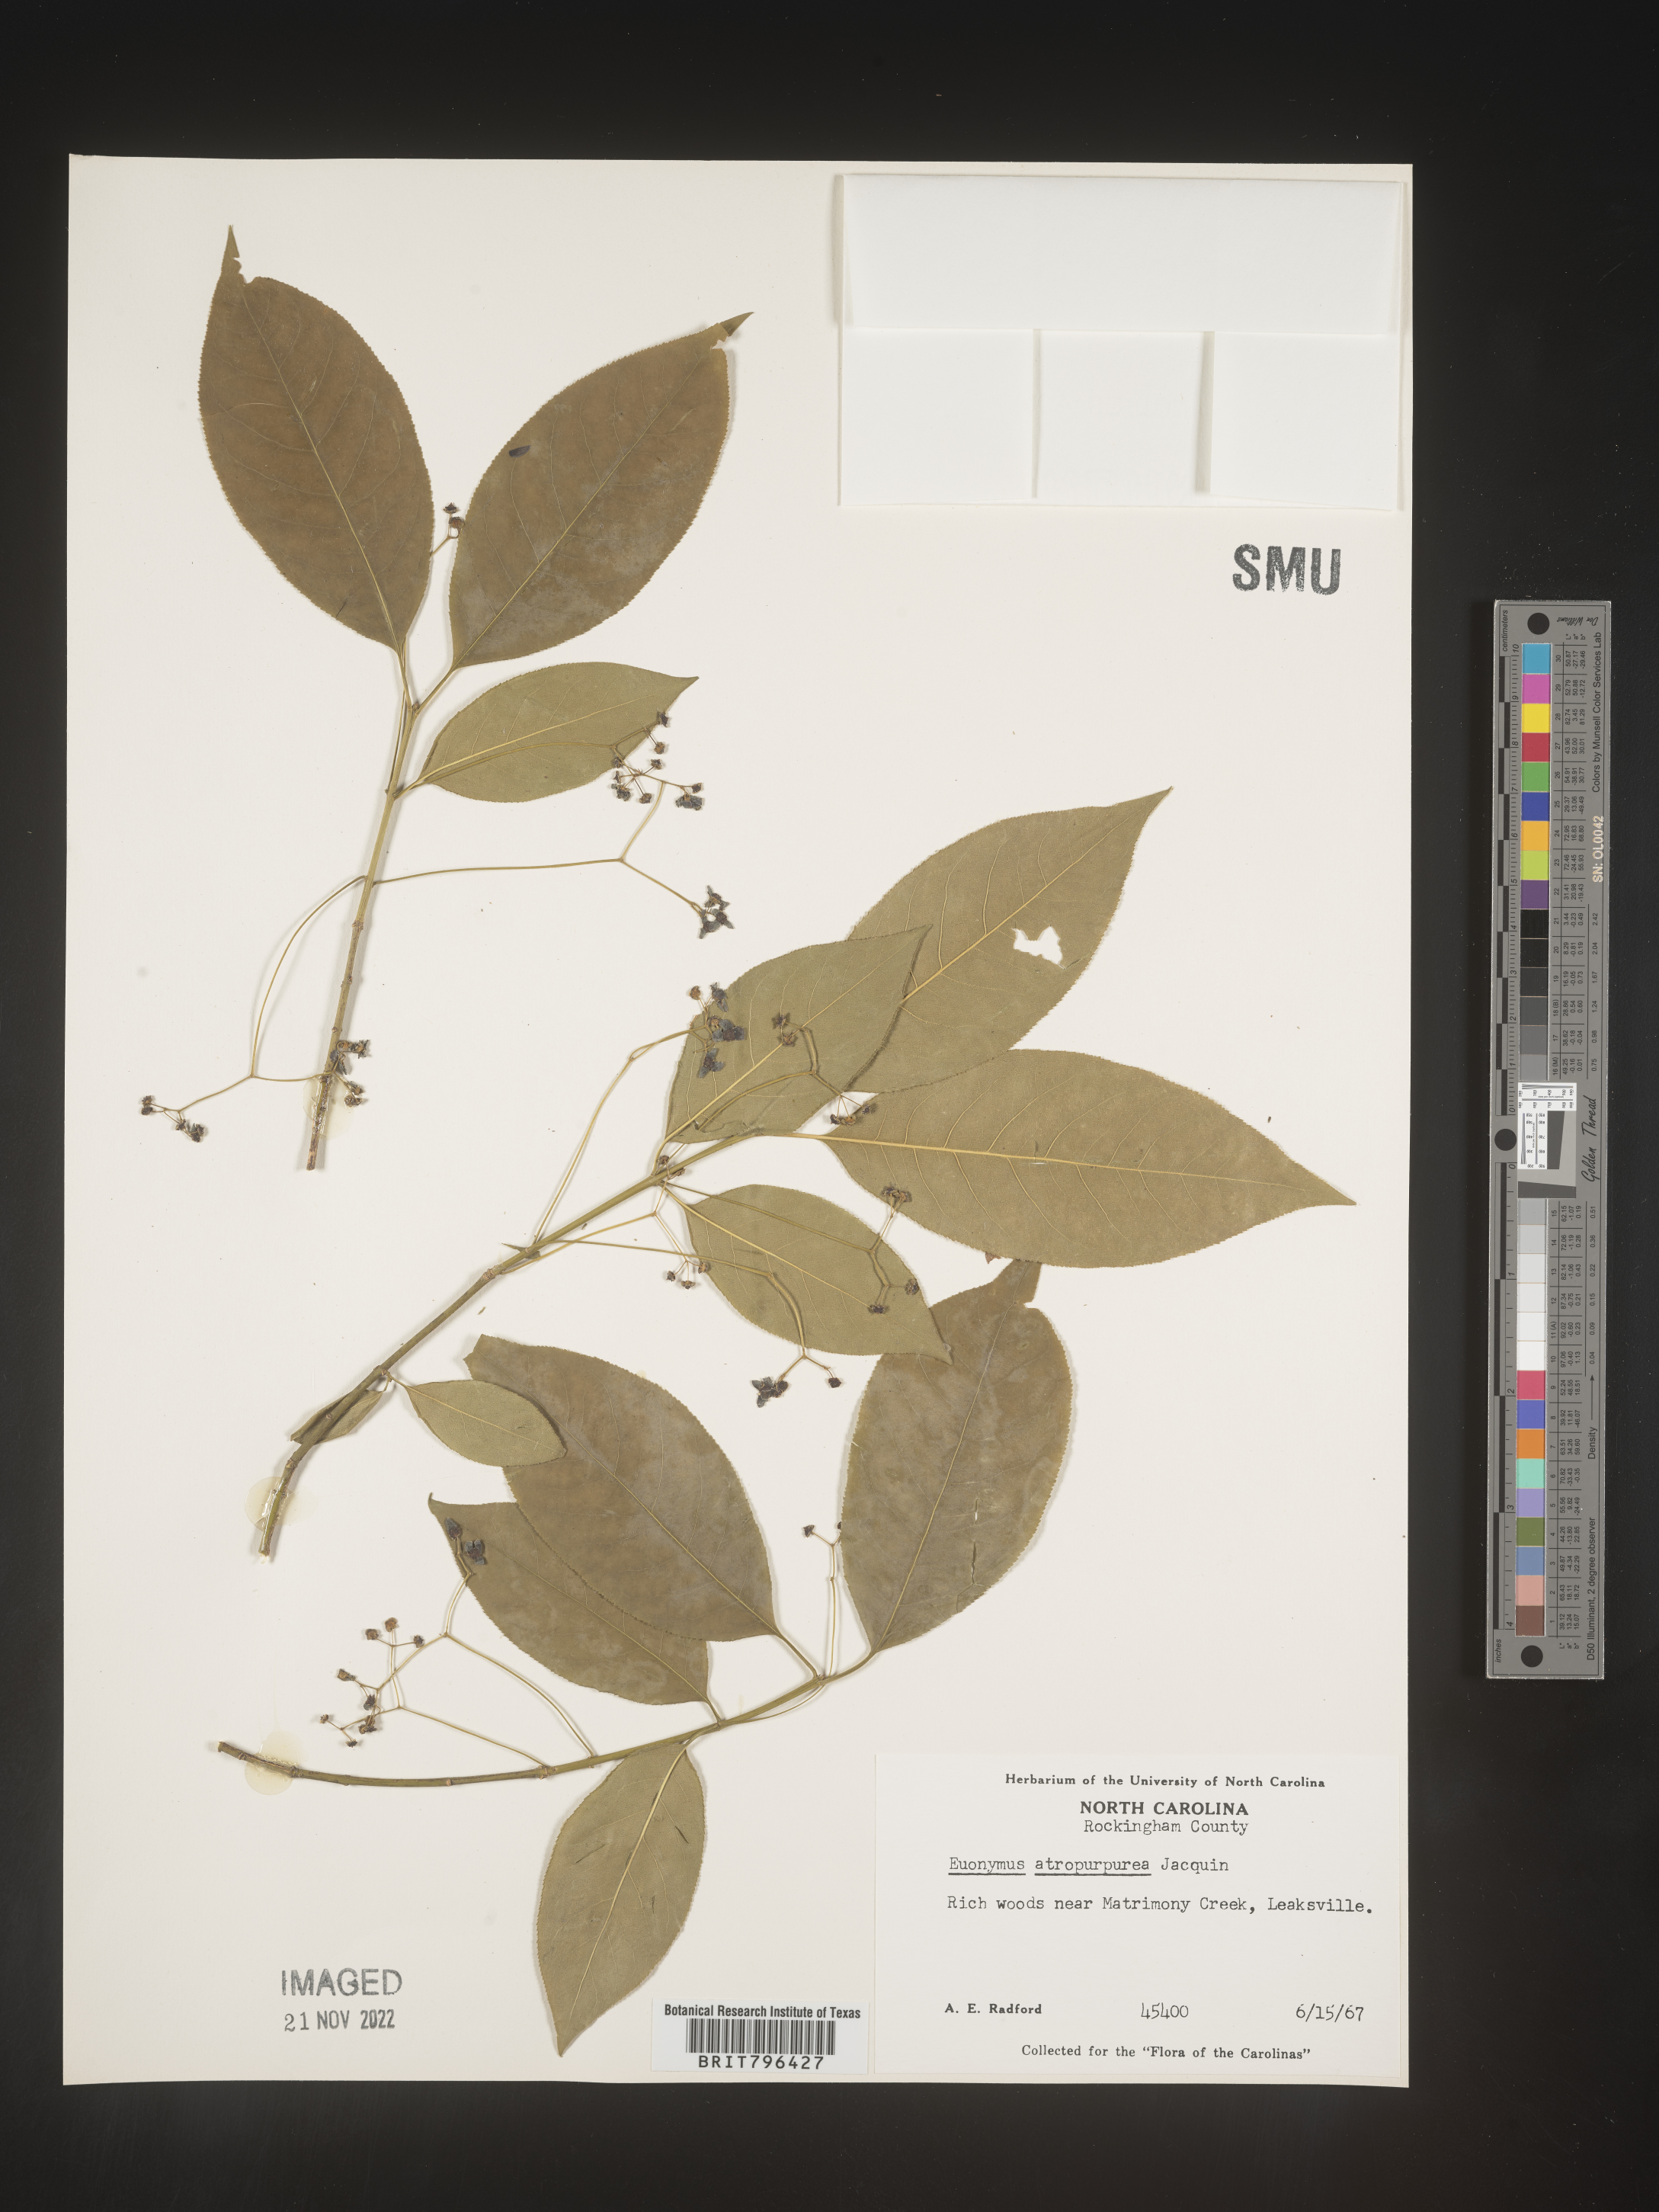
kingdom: Plantae
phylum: Tracheophyta
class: Magnoliopsida
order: Celastrales
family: Celastraceae
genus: Euonymus
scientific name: Euonymus atropurpureus
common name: Eastern wahoo
